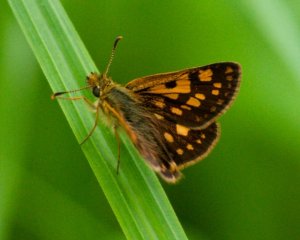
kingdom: Animalia
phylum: Arthropoda
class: Insecta
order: Lepidoptera
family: Hesperiidae
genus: Carterocephalus
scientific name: Carterocephalus palaemon
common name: Chequered Skipper
